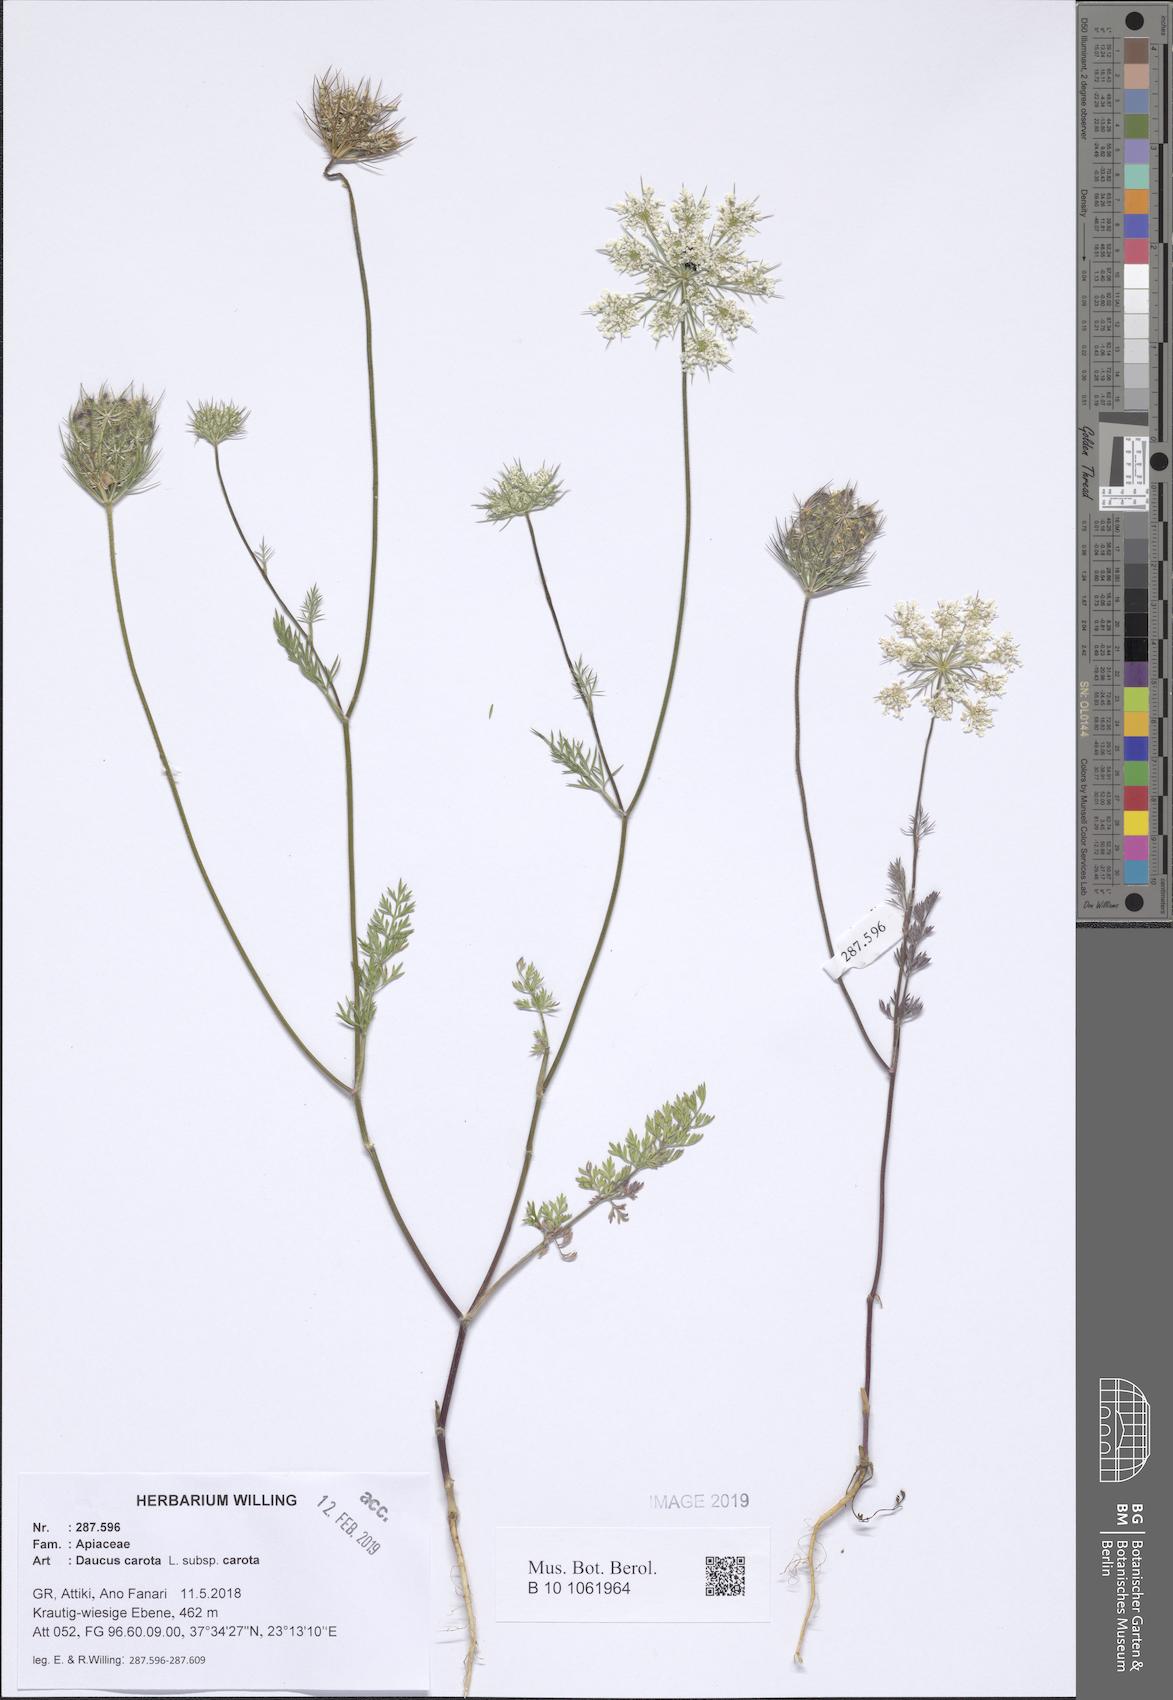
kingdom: Plantae
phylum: Tracheophyta
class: Magnoliopsida
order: Apiales
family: Apiaceae
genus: Daucus
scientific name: Daucus carota
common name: Wild carrot
